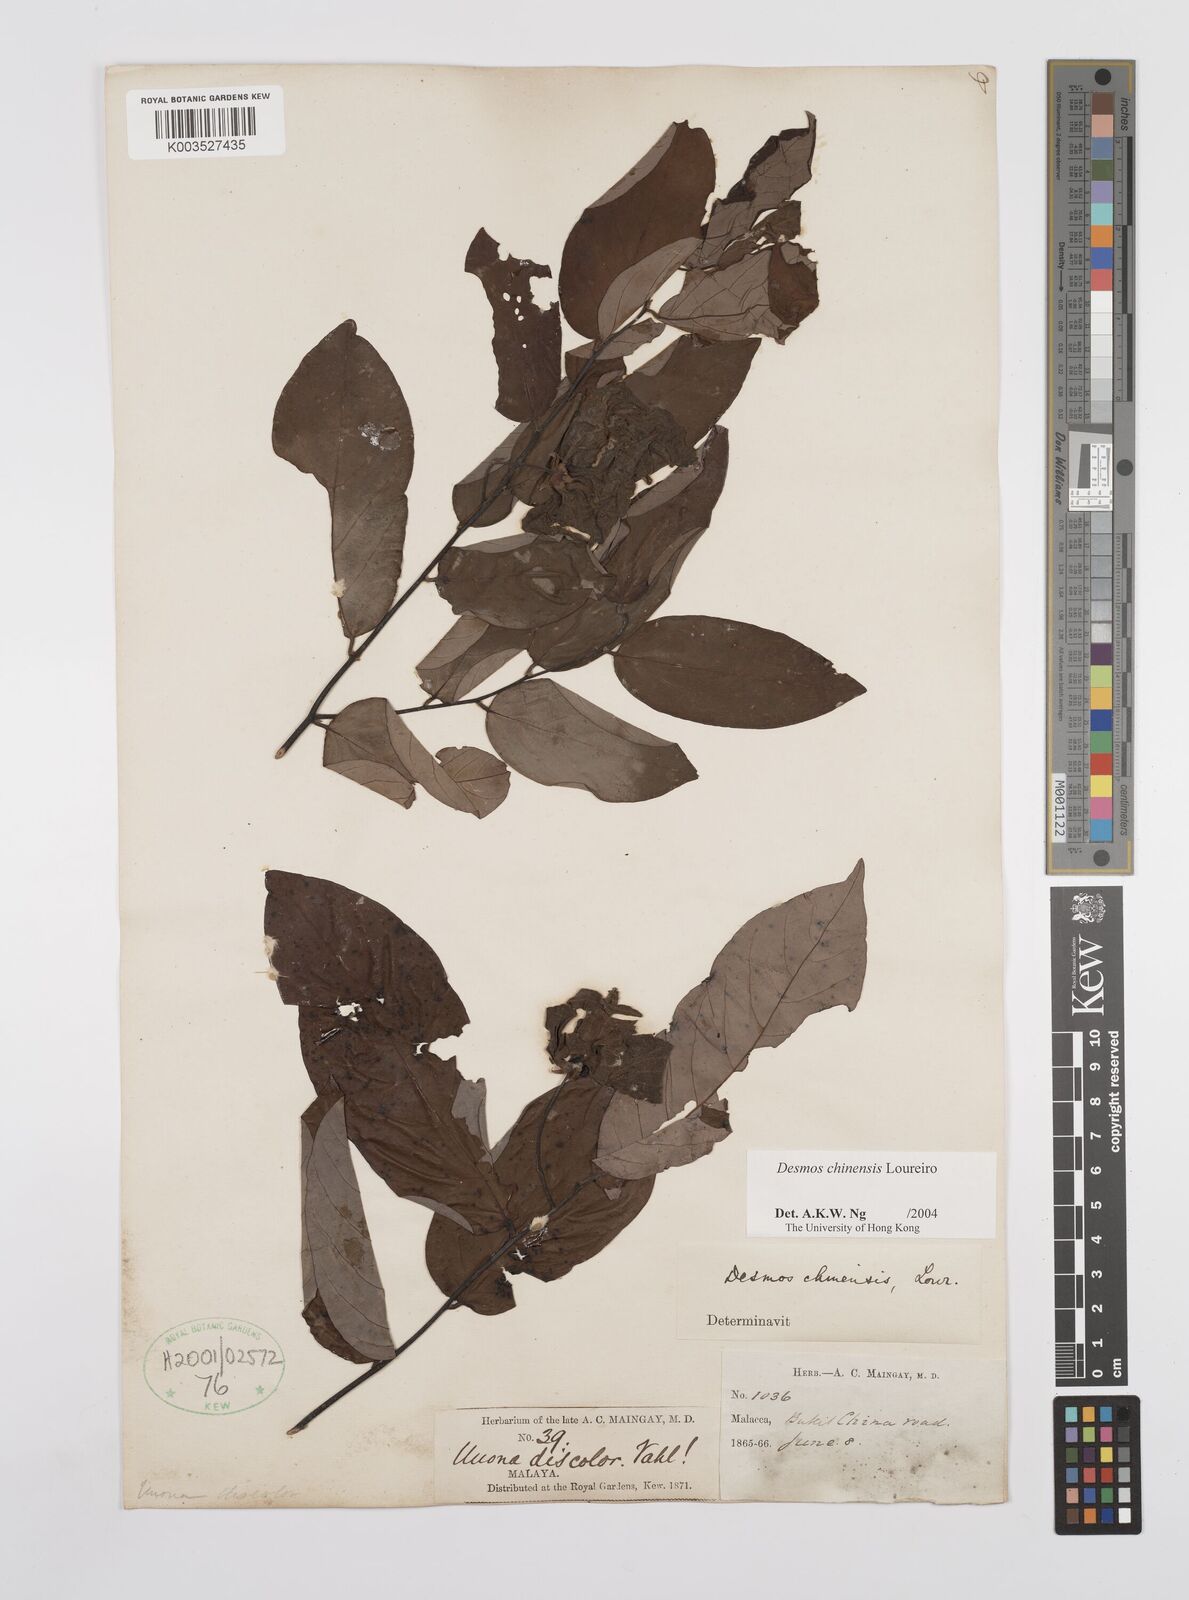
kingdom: Plantae
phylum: Tracheophyta
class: Magnoliopsida
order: Magnoliales
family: Annonaceae
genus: Desmos
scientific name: Desmos chinensis
